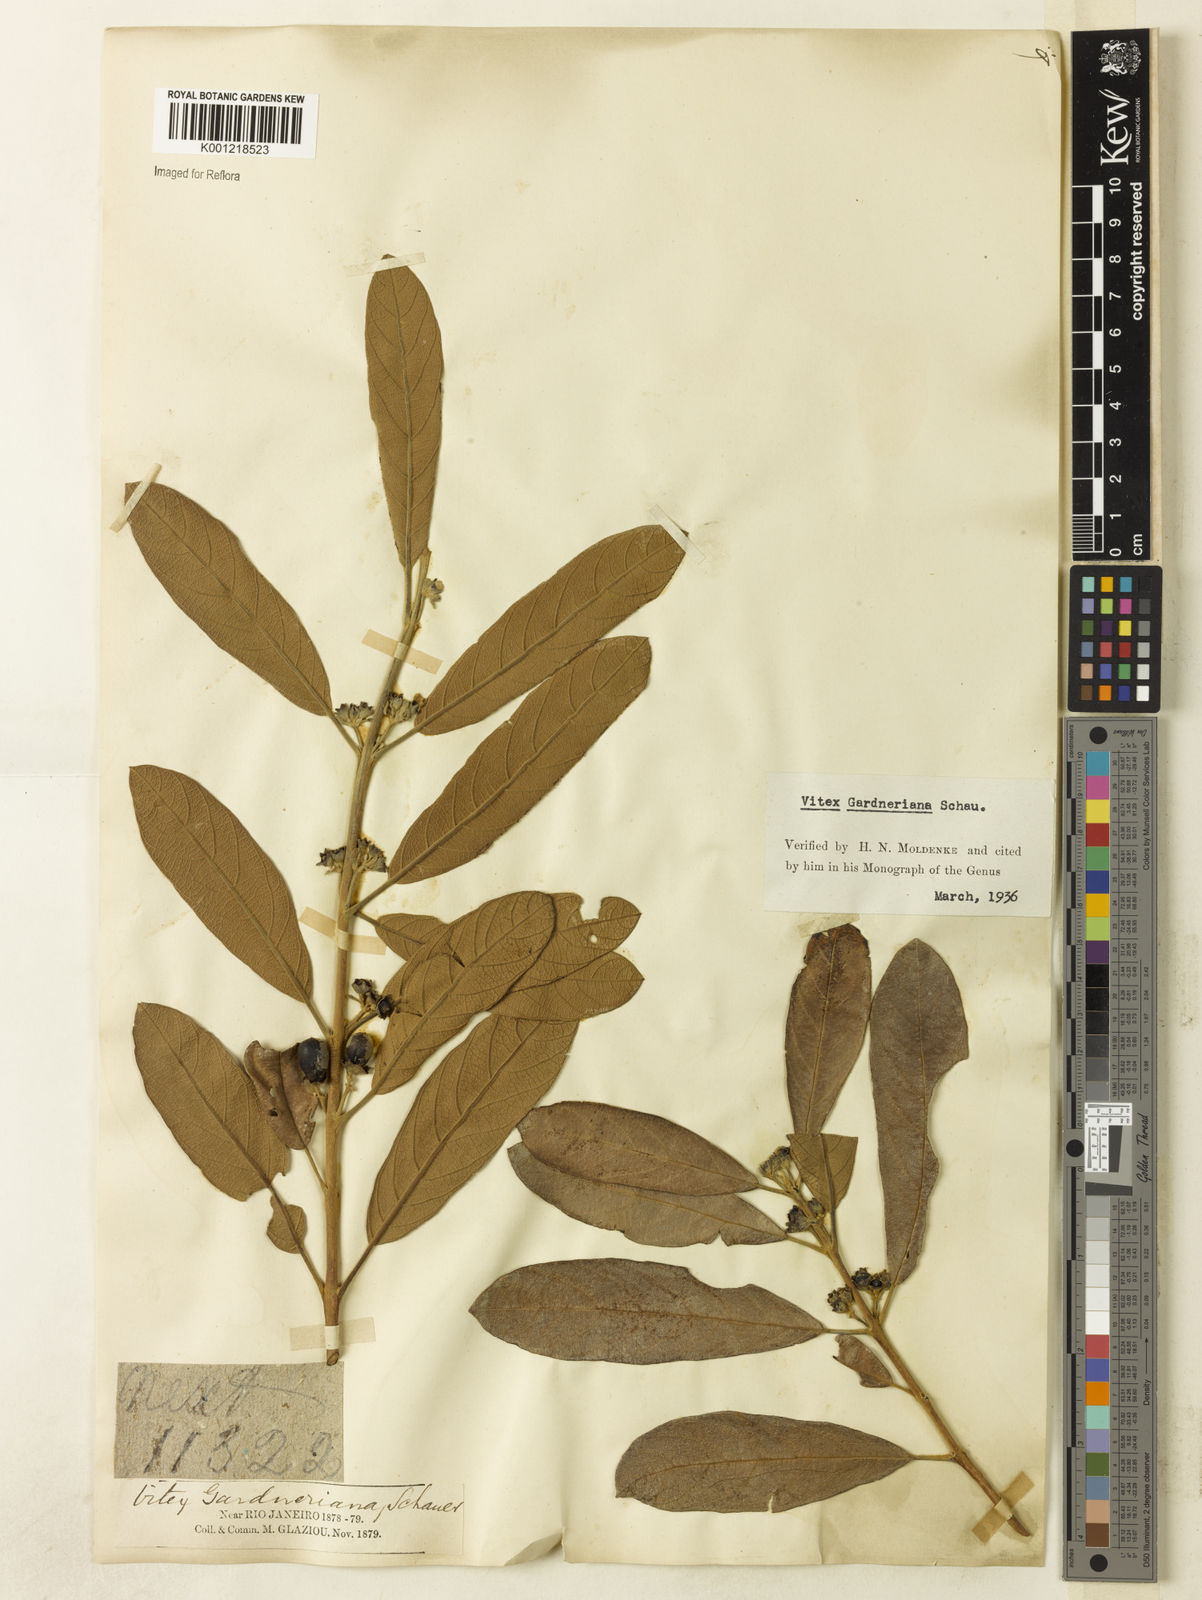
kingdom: Plantae
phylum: Tracheophyta
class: Magnoliopsida
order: Lamiales
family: Lamiaceae
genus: Vitex
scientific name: Vitex gardneriana
